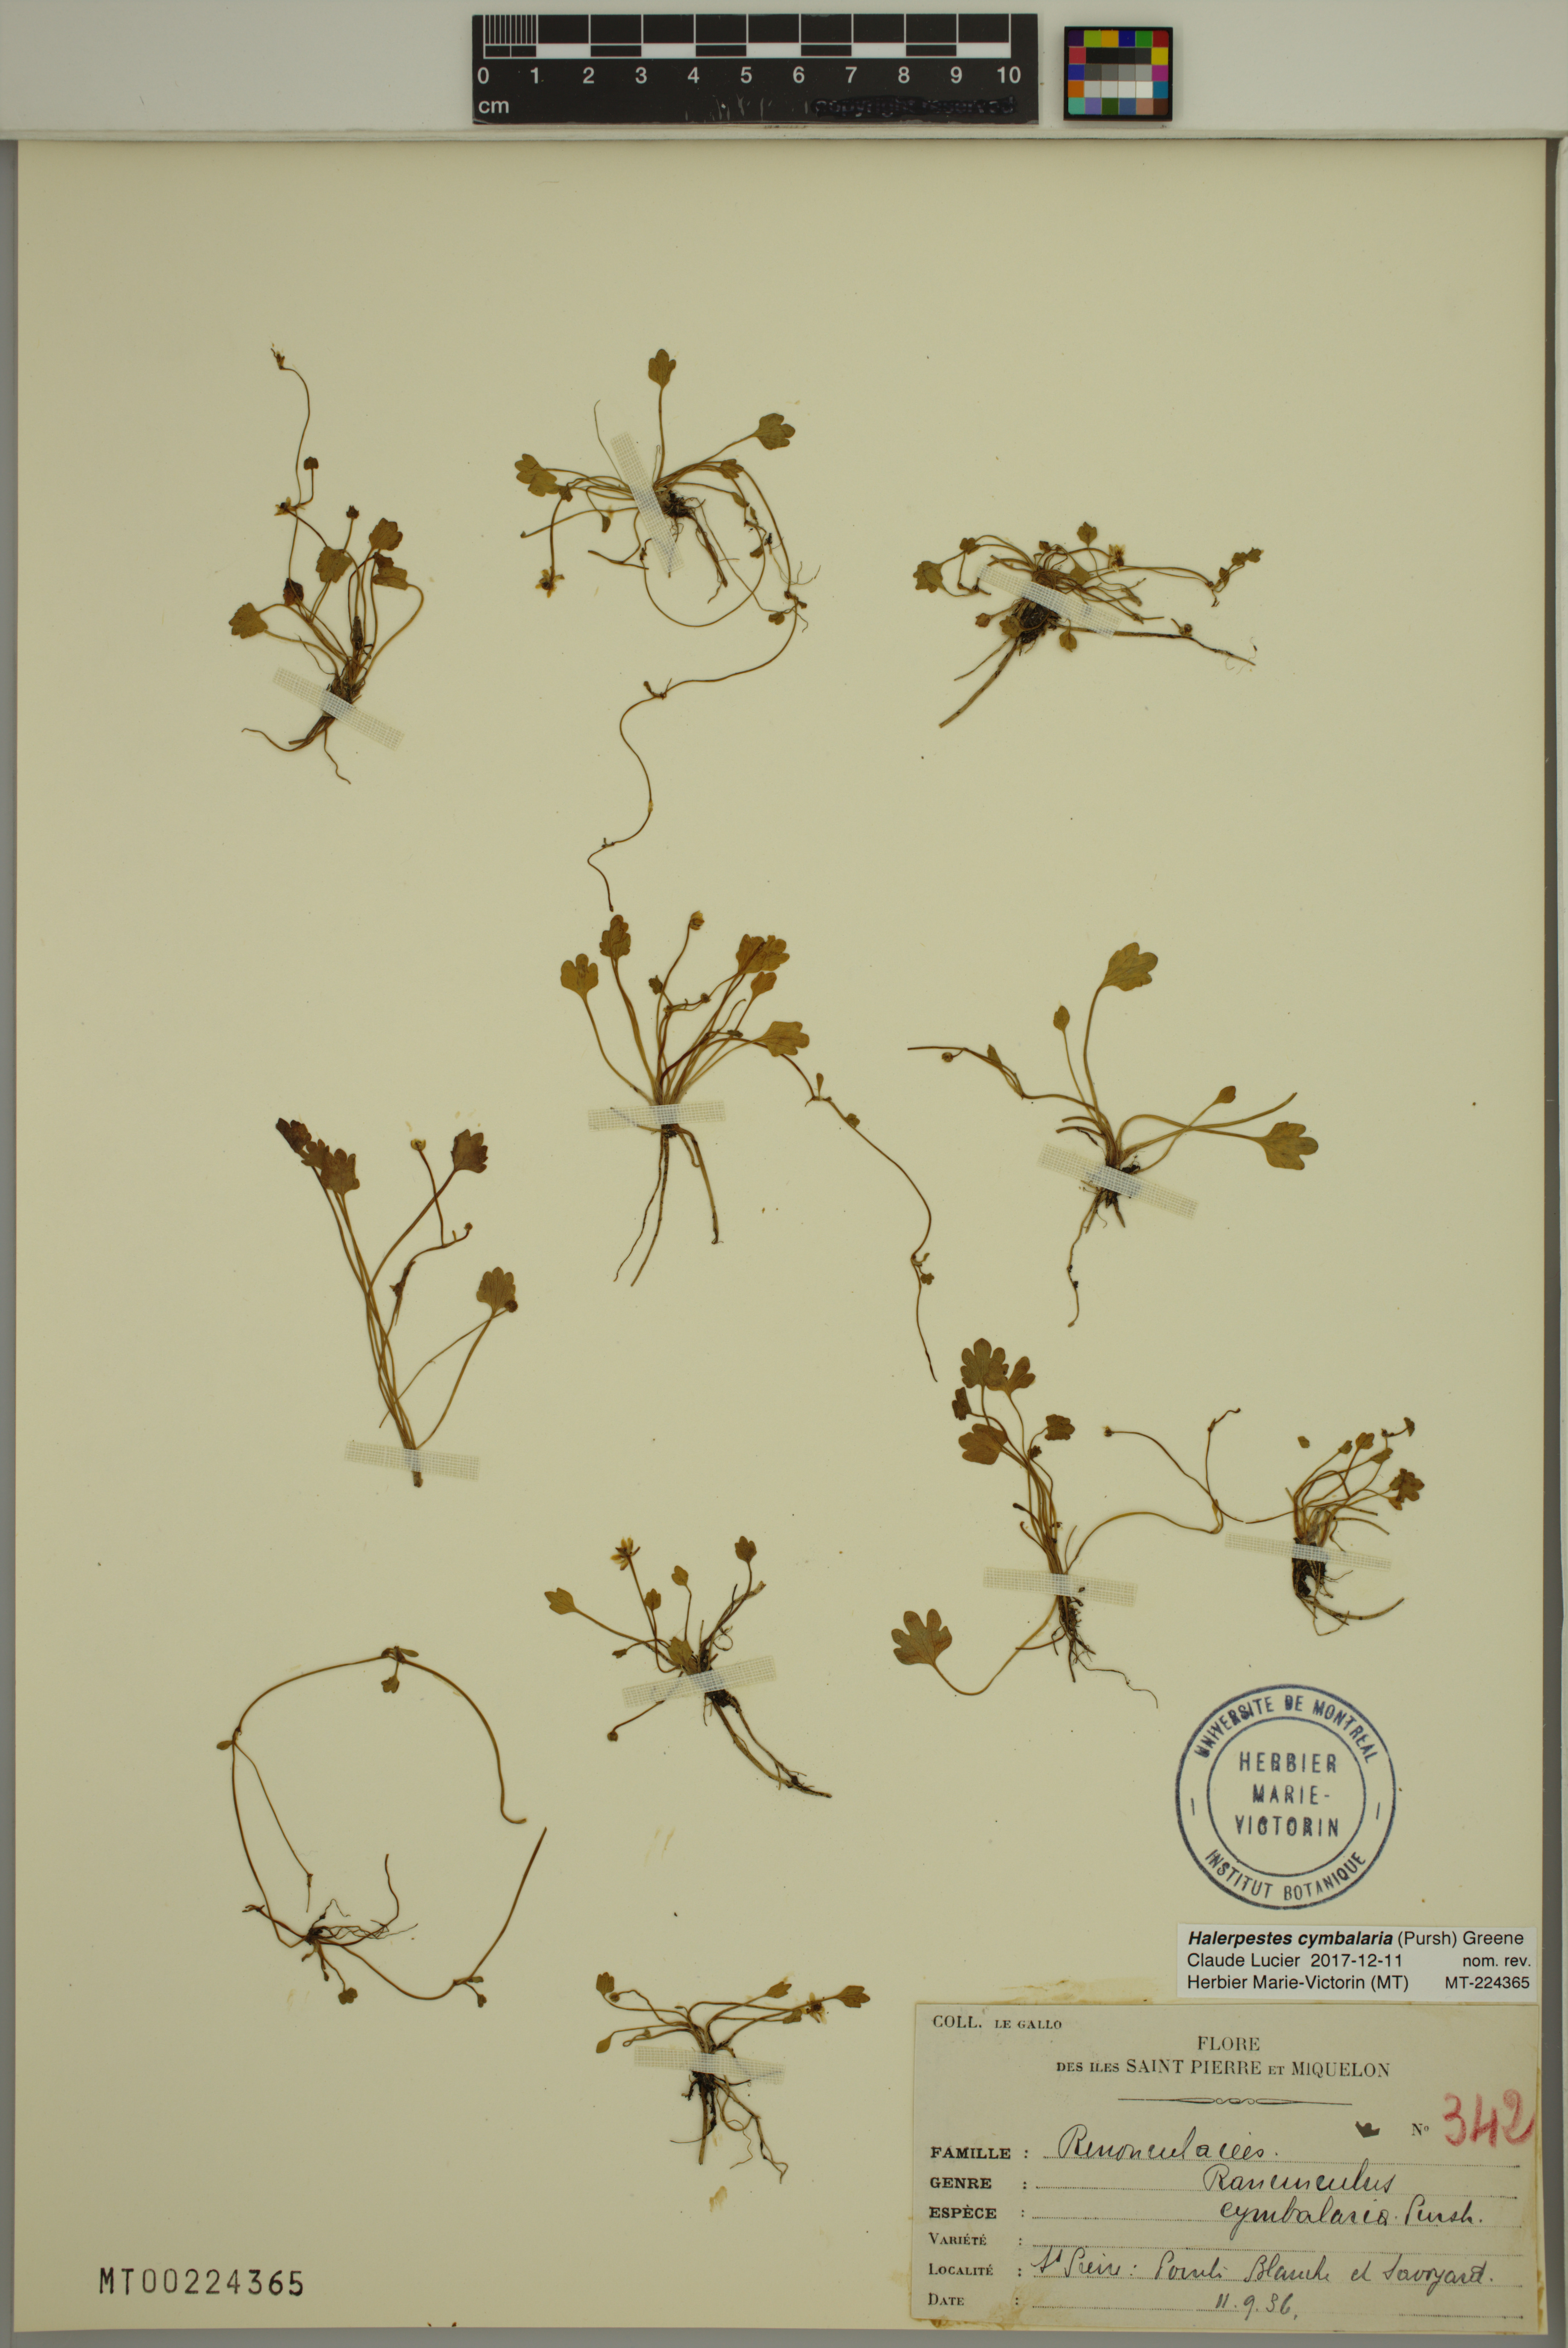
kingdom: Plantae
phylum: Tracheophyta
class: Magnoliopsida
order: Ranunculales
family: Ranunculaceae
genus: Halerpestes
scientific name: Halerpestes cymbalaria
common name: Seaside crowfoot
